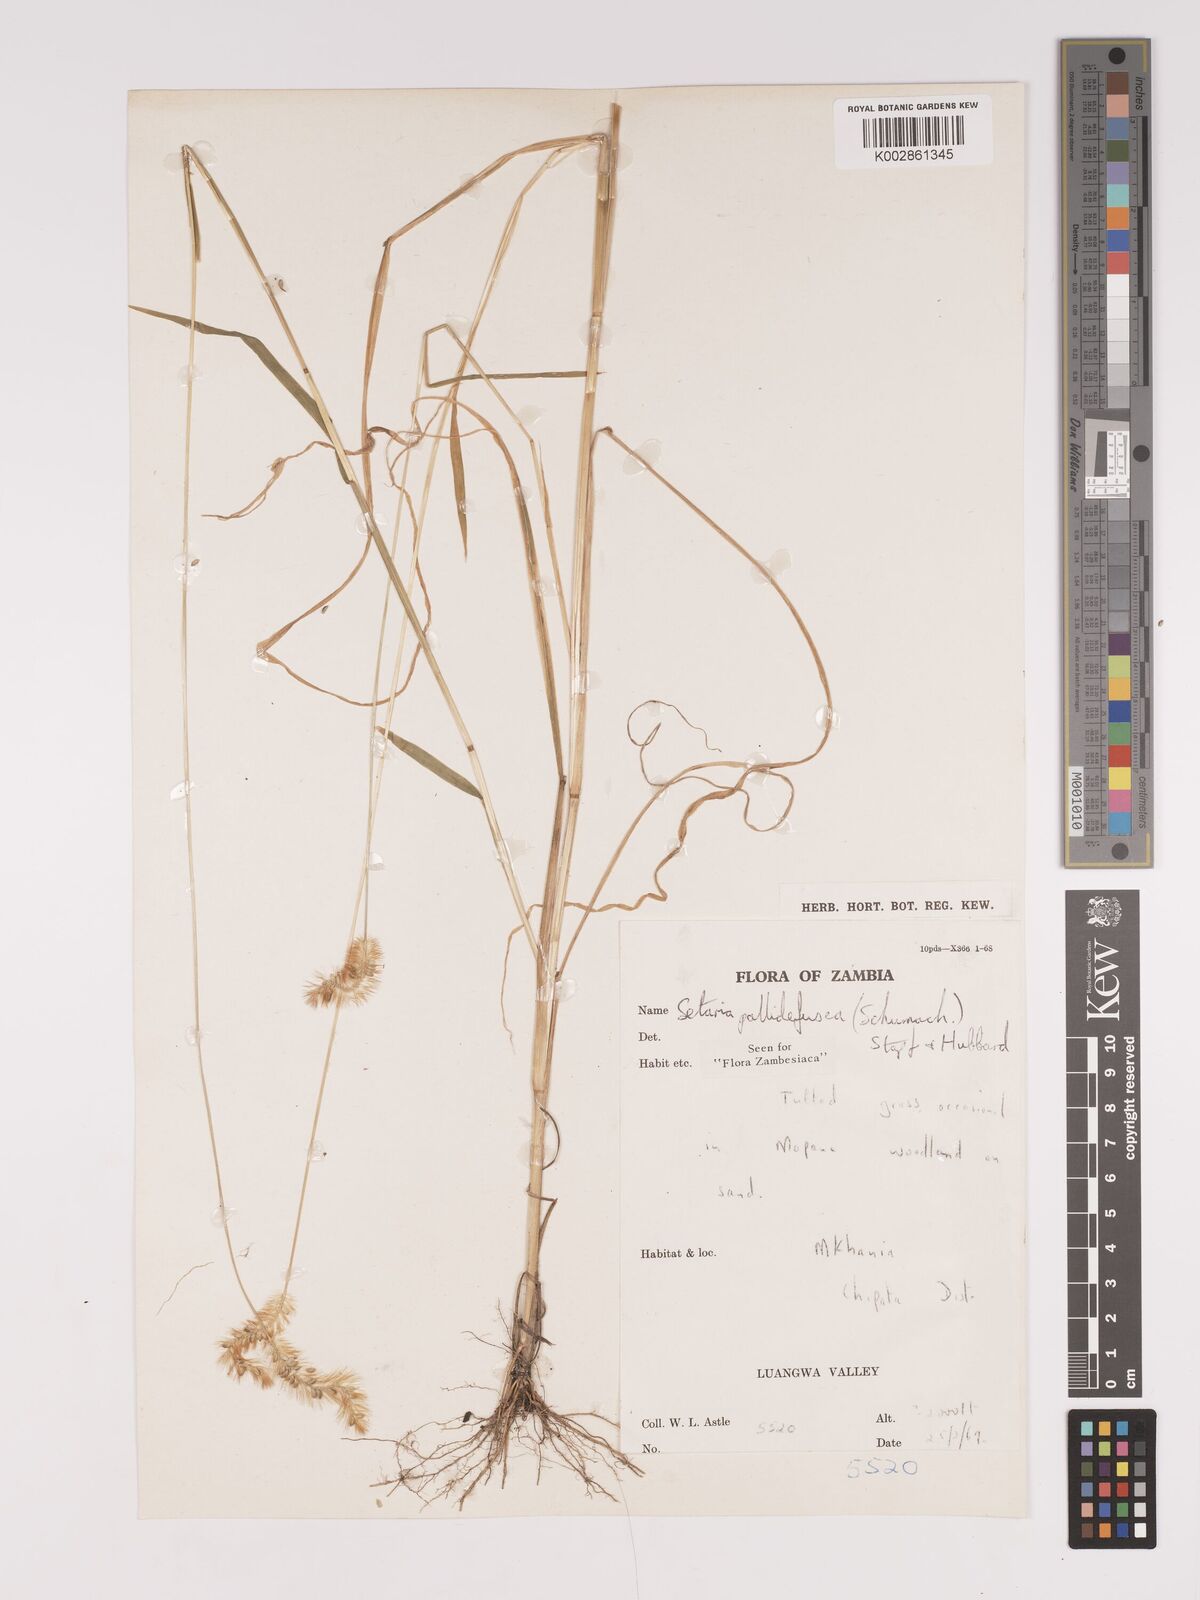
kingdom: Plantae
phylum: Tracheophyta
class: Liliopsida
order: Poales
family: Poaceae
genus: Setaria
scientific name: Setaria pumila
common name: Yellow bristle-grass
